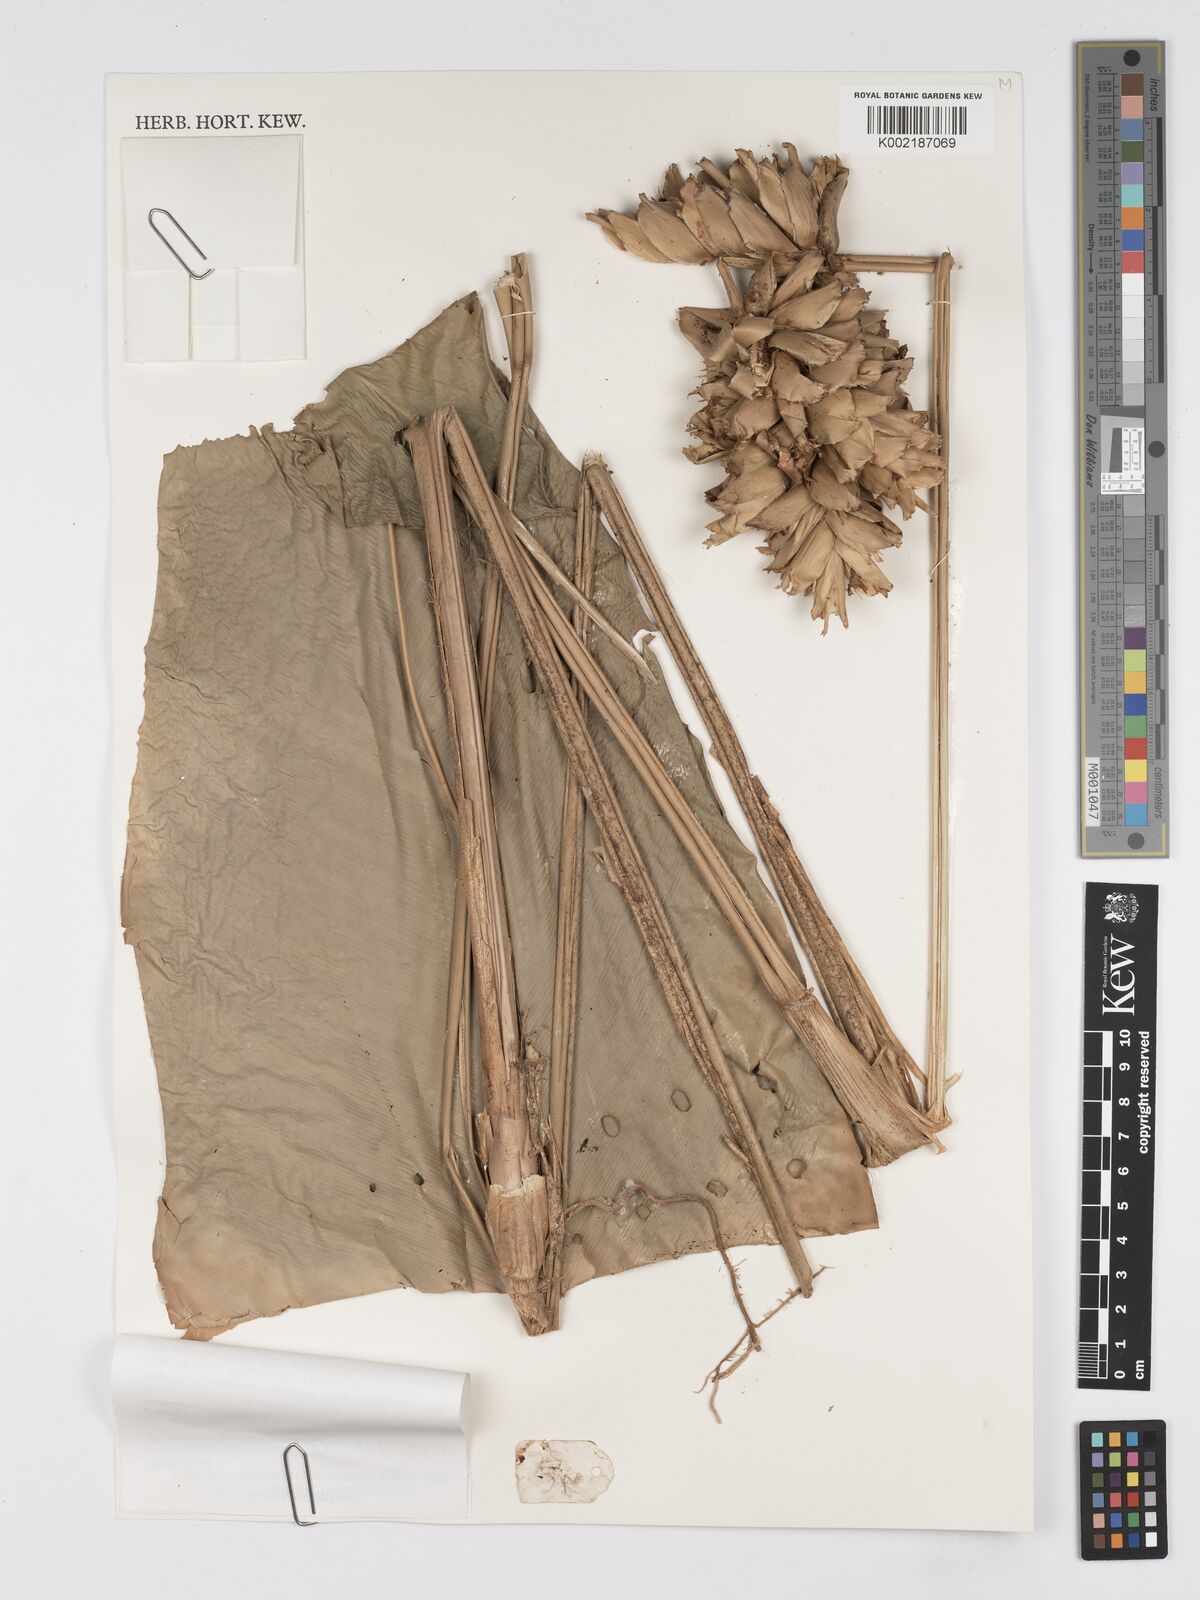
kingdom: Plantae
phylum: Tracheophyta
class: Liliopsida
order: Zingiberales
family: Marantaceae
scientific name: Marantaceae
